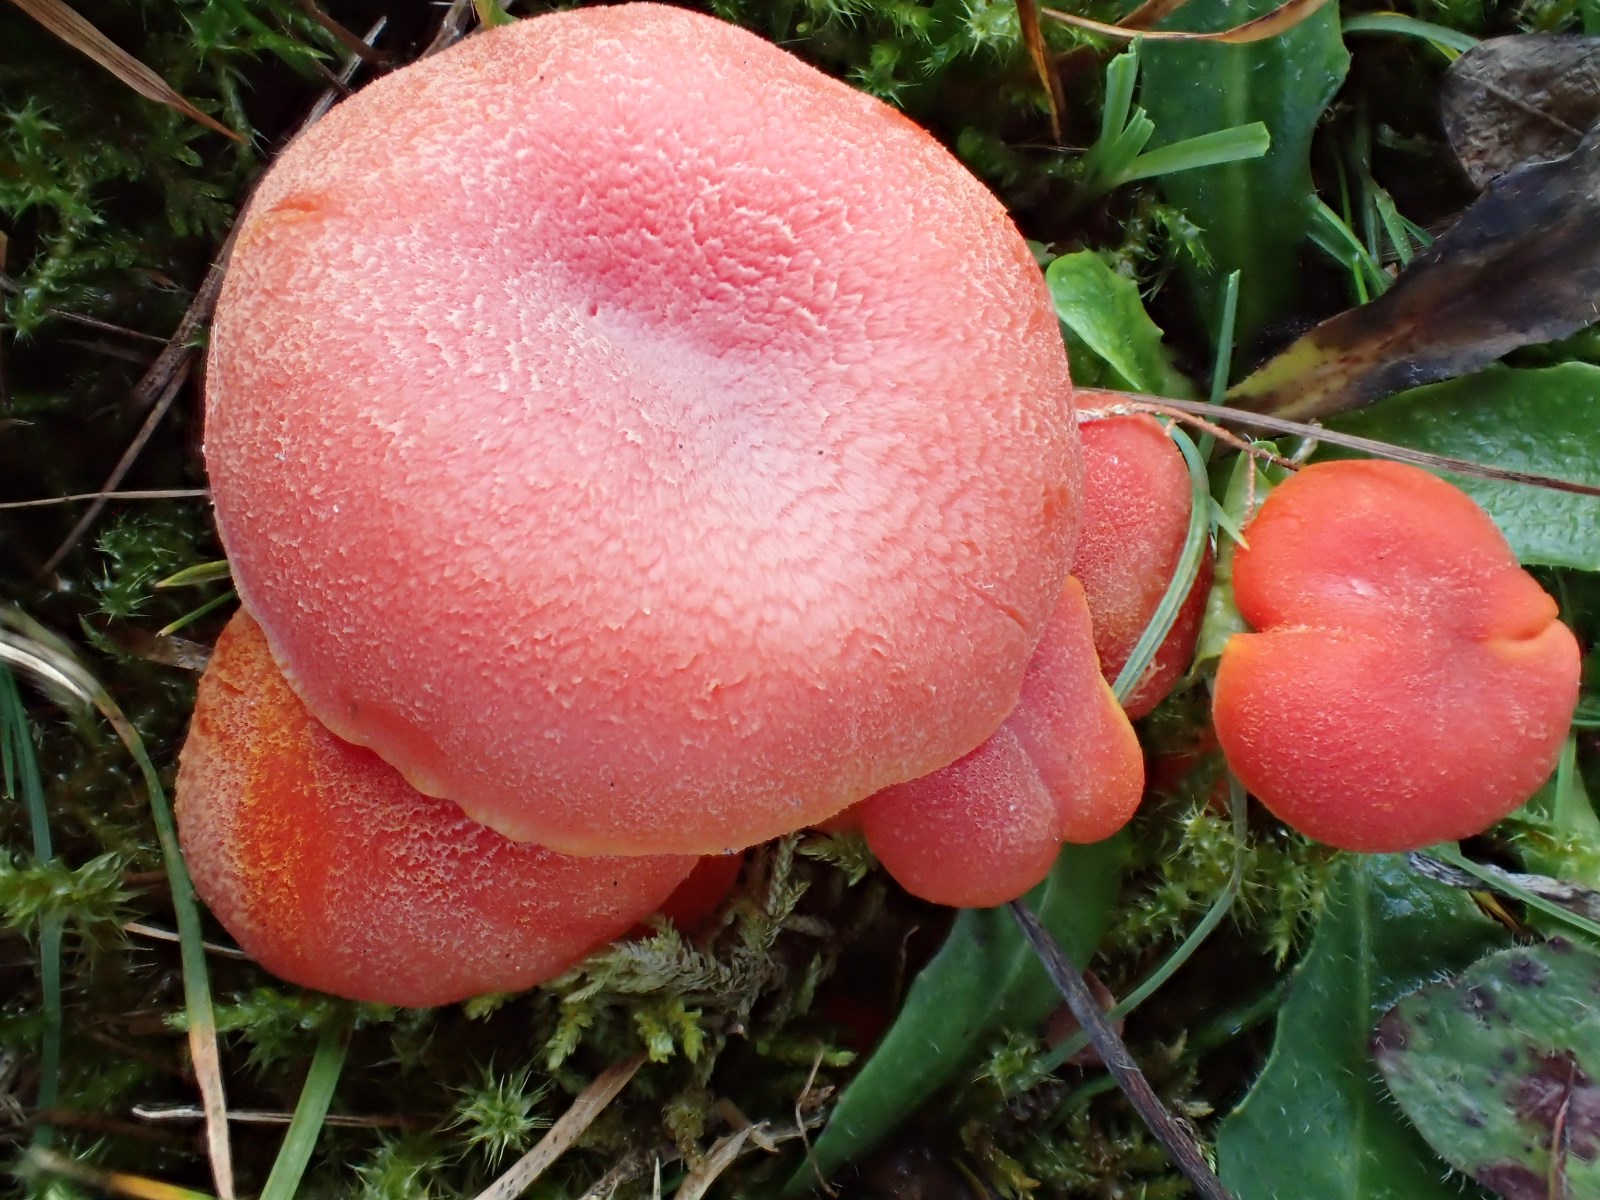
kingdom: Fungi
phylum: Basidiomycota
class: Agaricomycetes
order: Agaricales
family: Hygrophoraceae
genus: Hygrocybe
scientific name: Hygrocybe miniata
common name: mønje-vokshat
